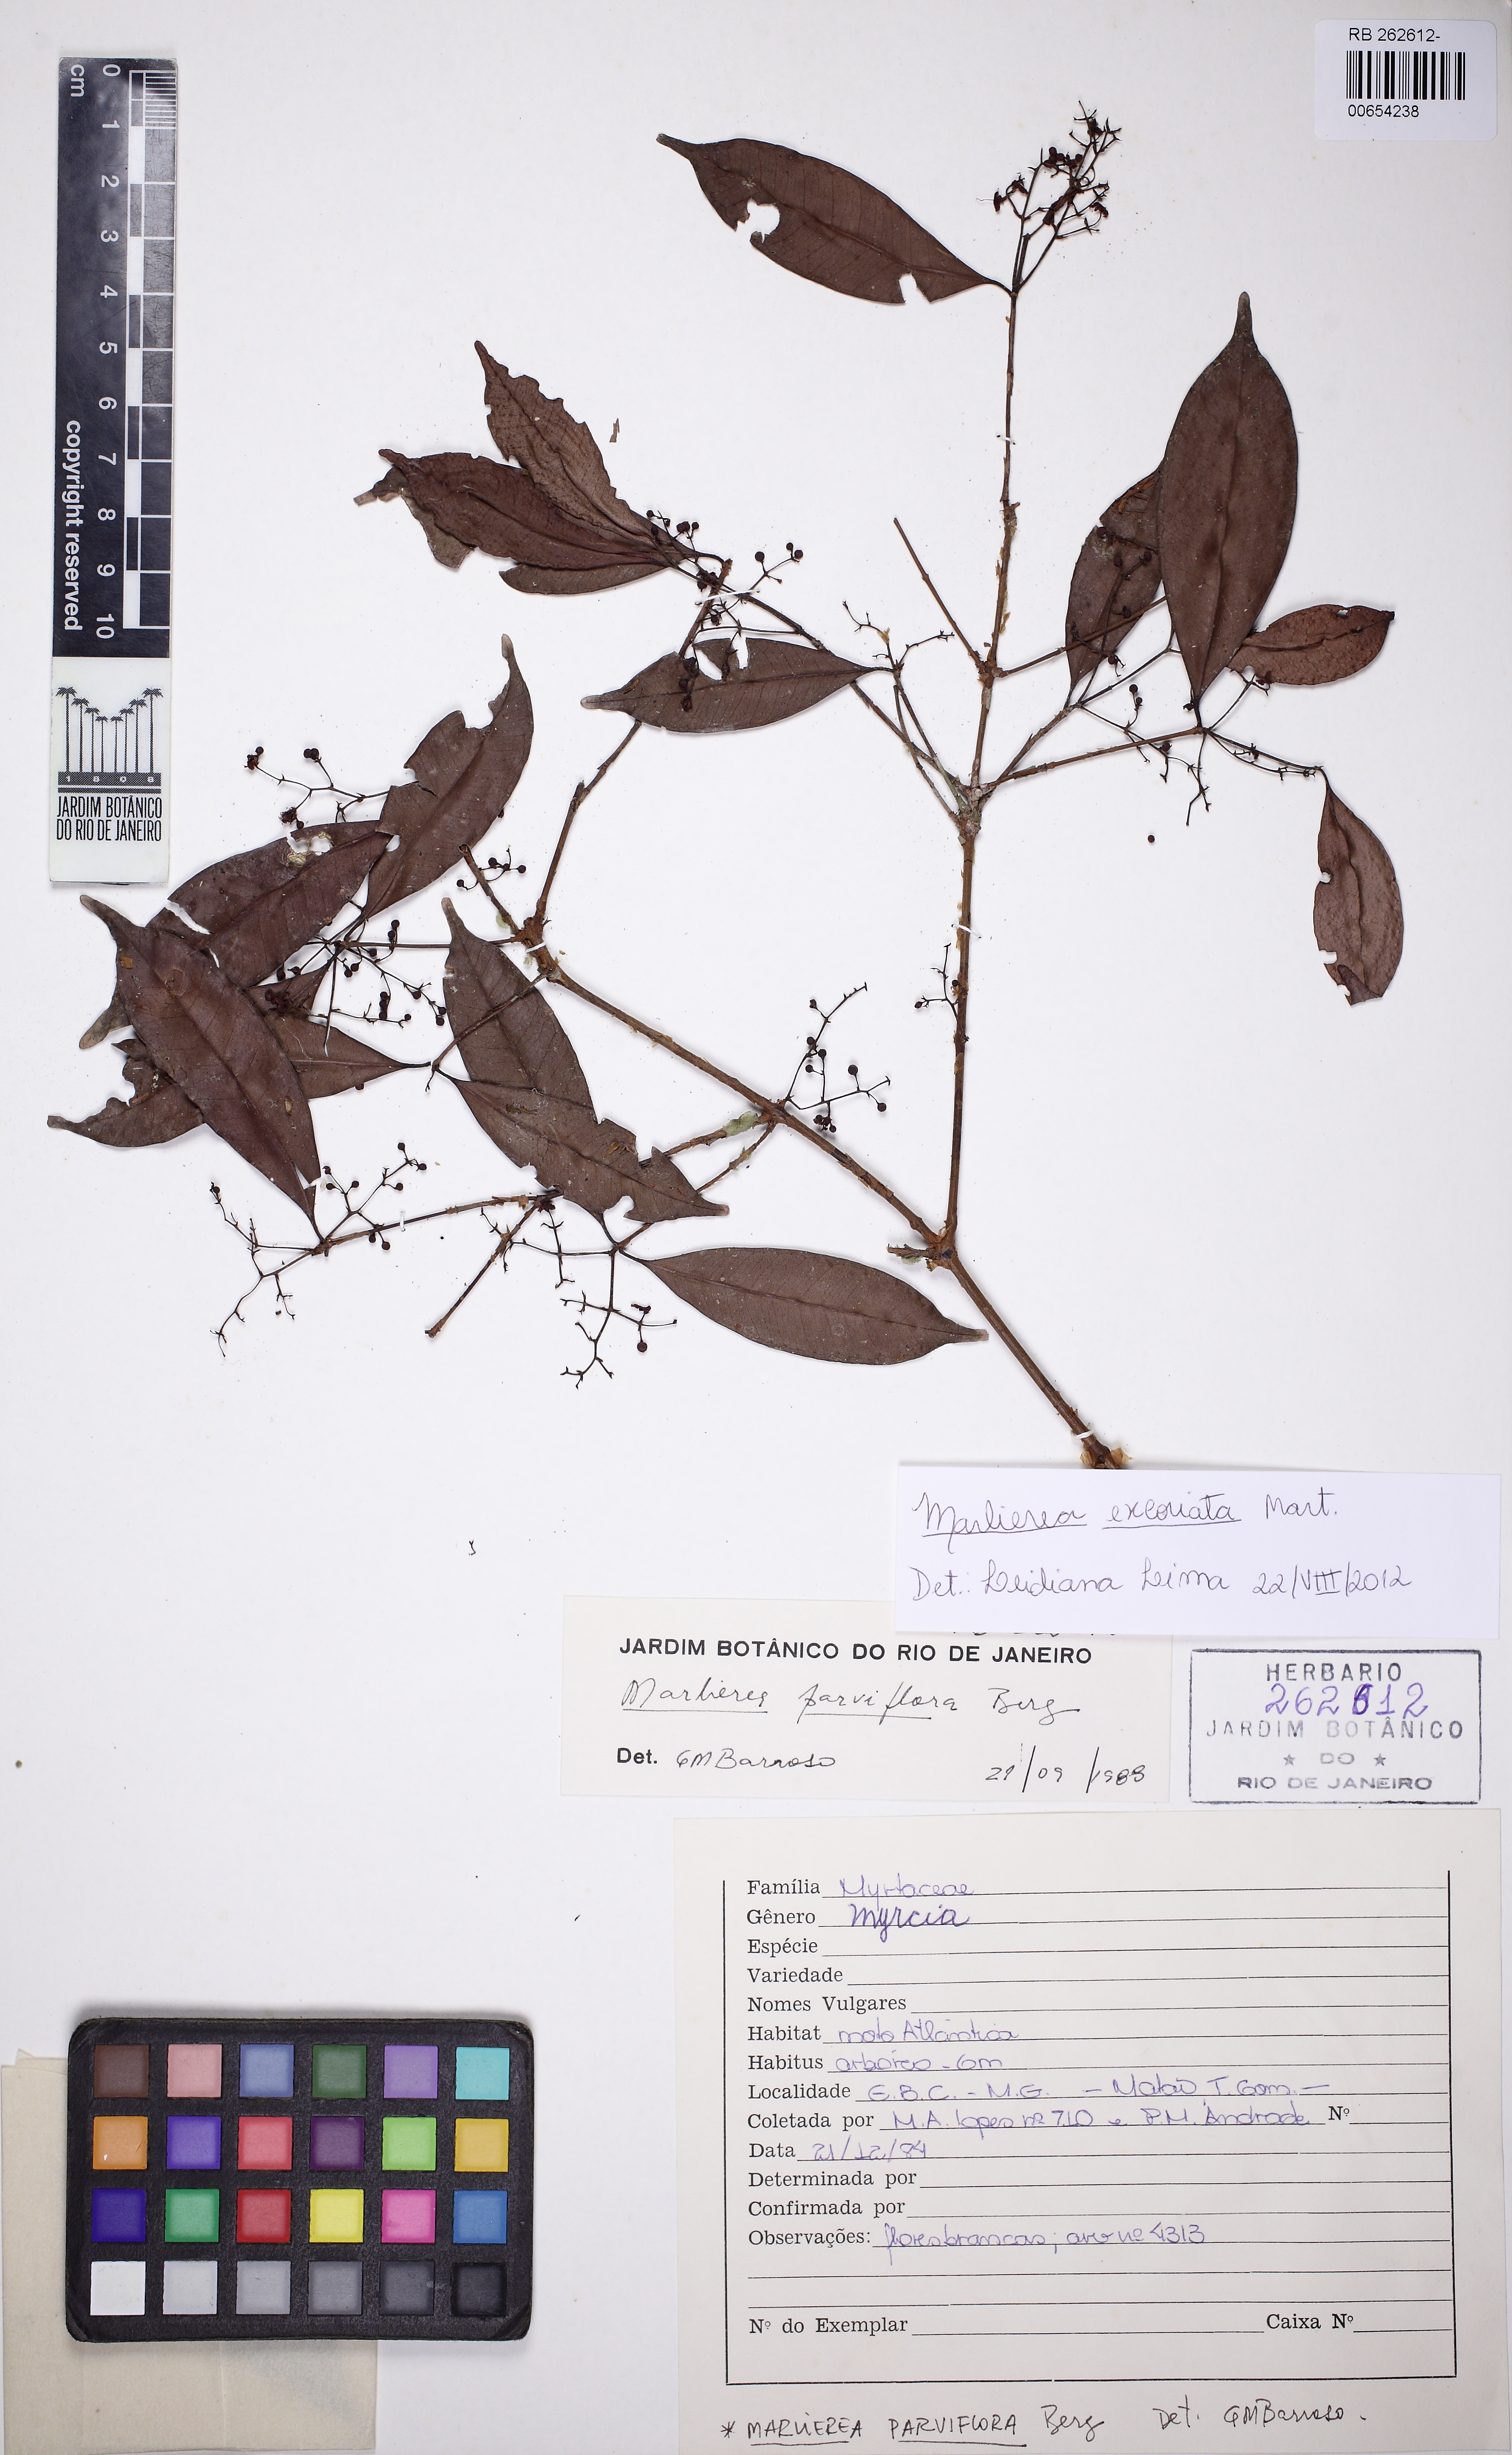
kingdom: Plantae
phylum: Tracheophyta
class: Magnoliopsida
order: Myrtales
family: Myrtaceae
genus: Myrcia
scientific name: Myrcia excoriata
